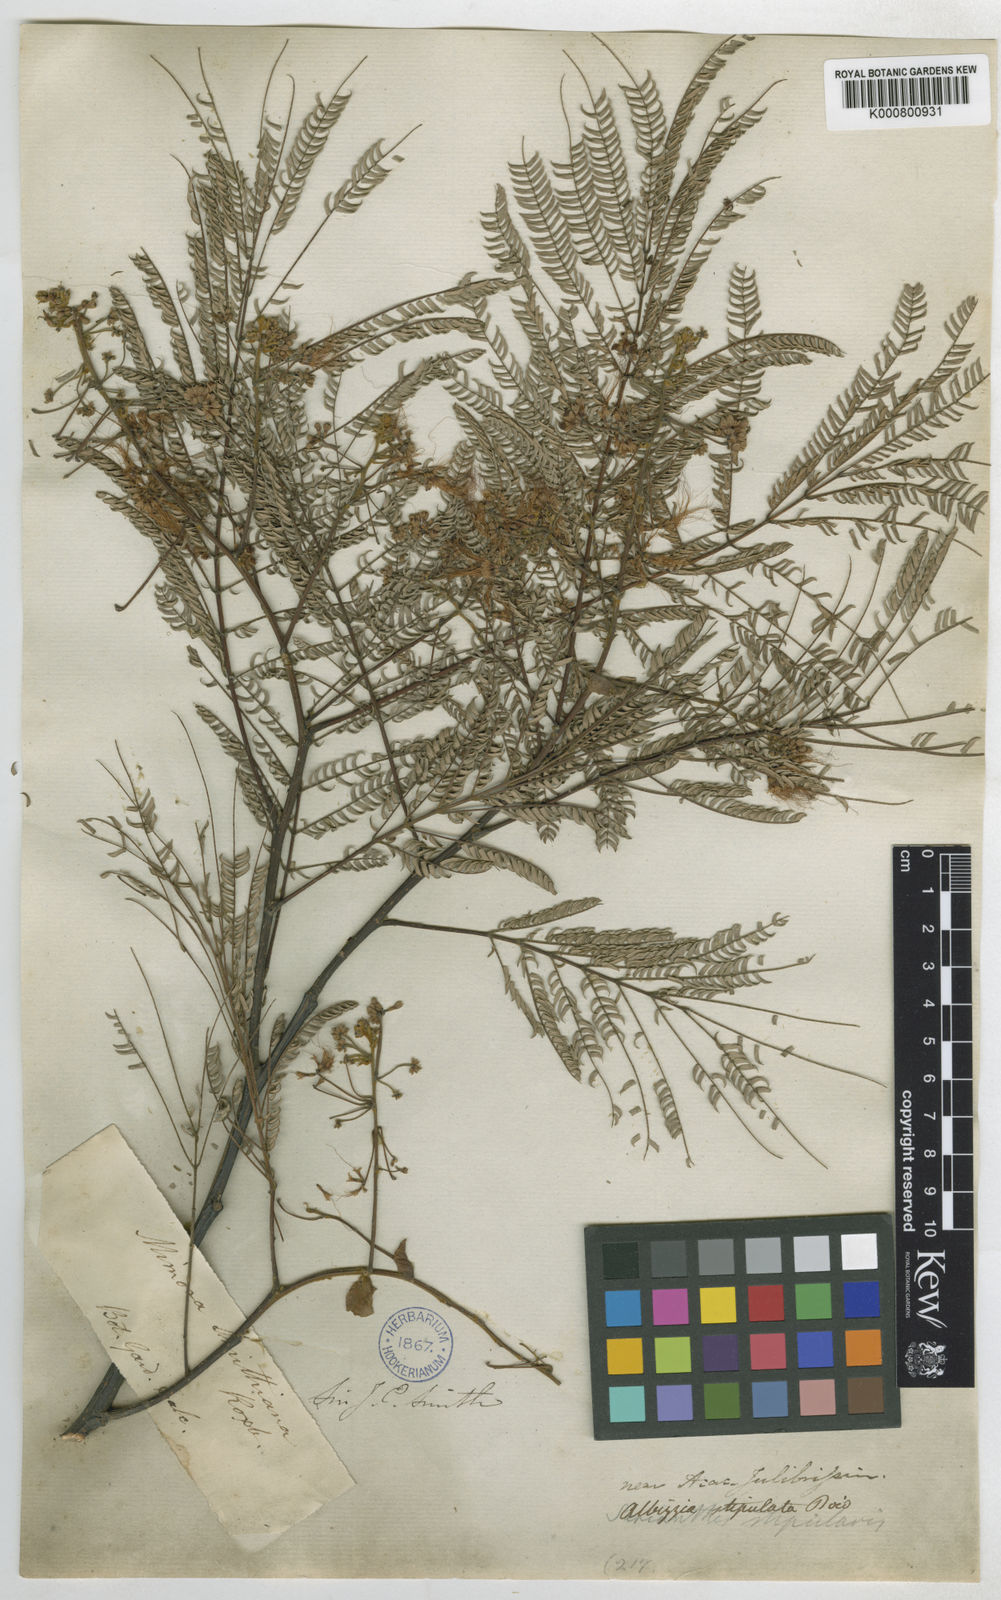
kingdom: Plantae
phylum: Tracheophyta
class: Magnoliopsida
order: Fabales
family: Fabaceae
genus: Albizia
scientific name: Albizia chinensis
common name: Chinese albizia
